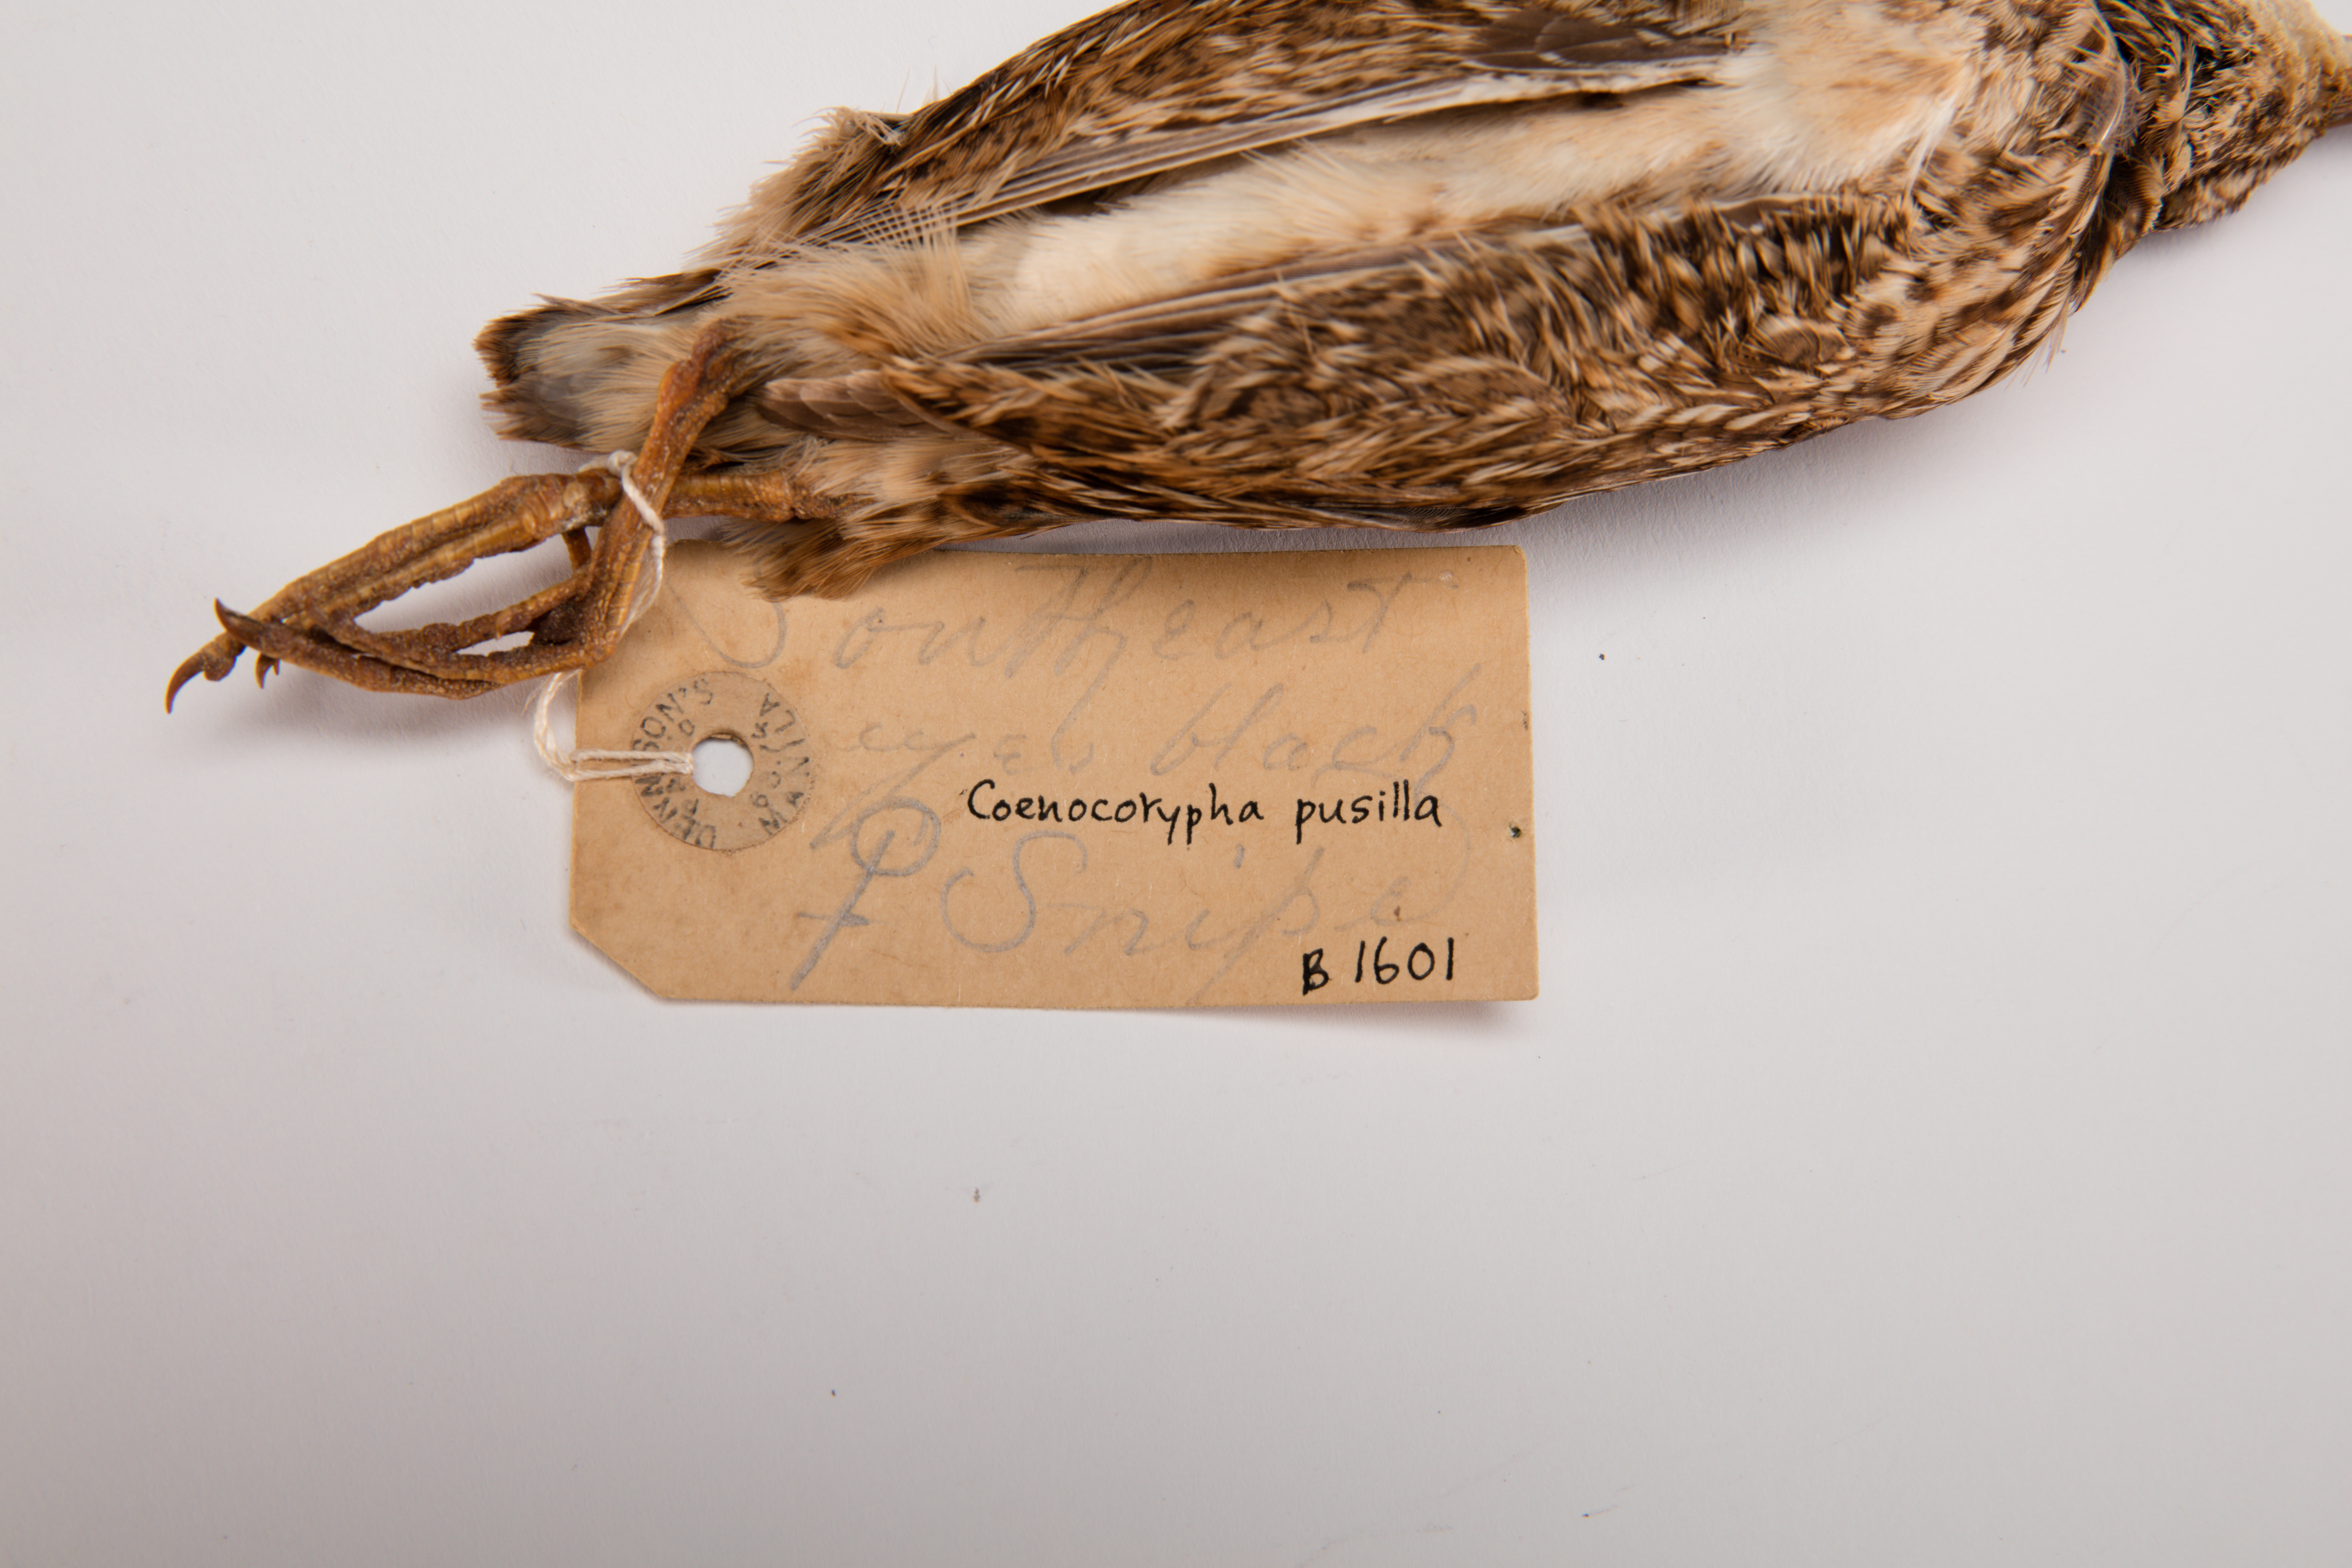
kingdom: Animalia
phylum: Chordata
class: Aves
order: Charadriiformes
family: Scolopacidae
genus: Coenocorypha
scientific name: Coenocorypha pusilla
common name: Chatham snipe
